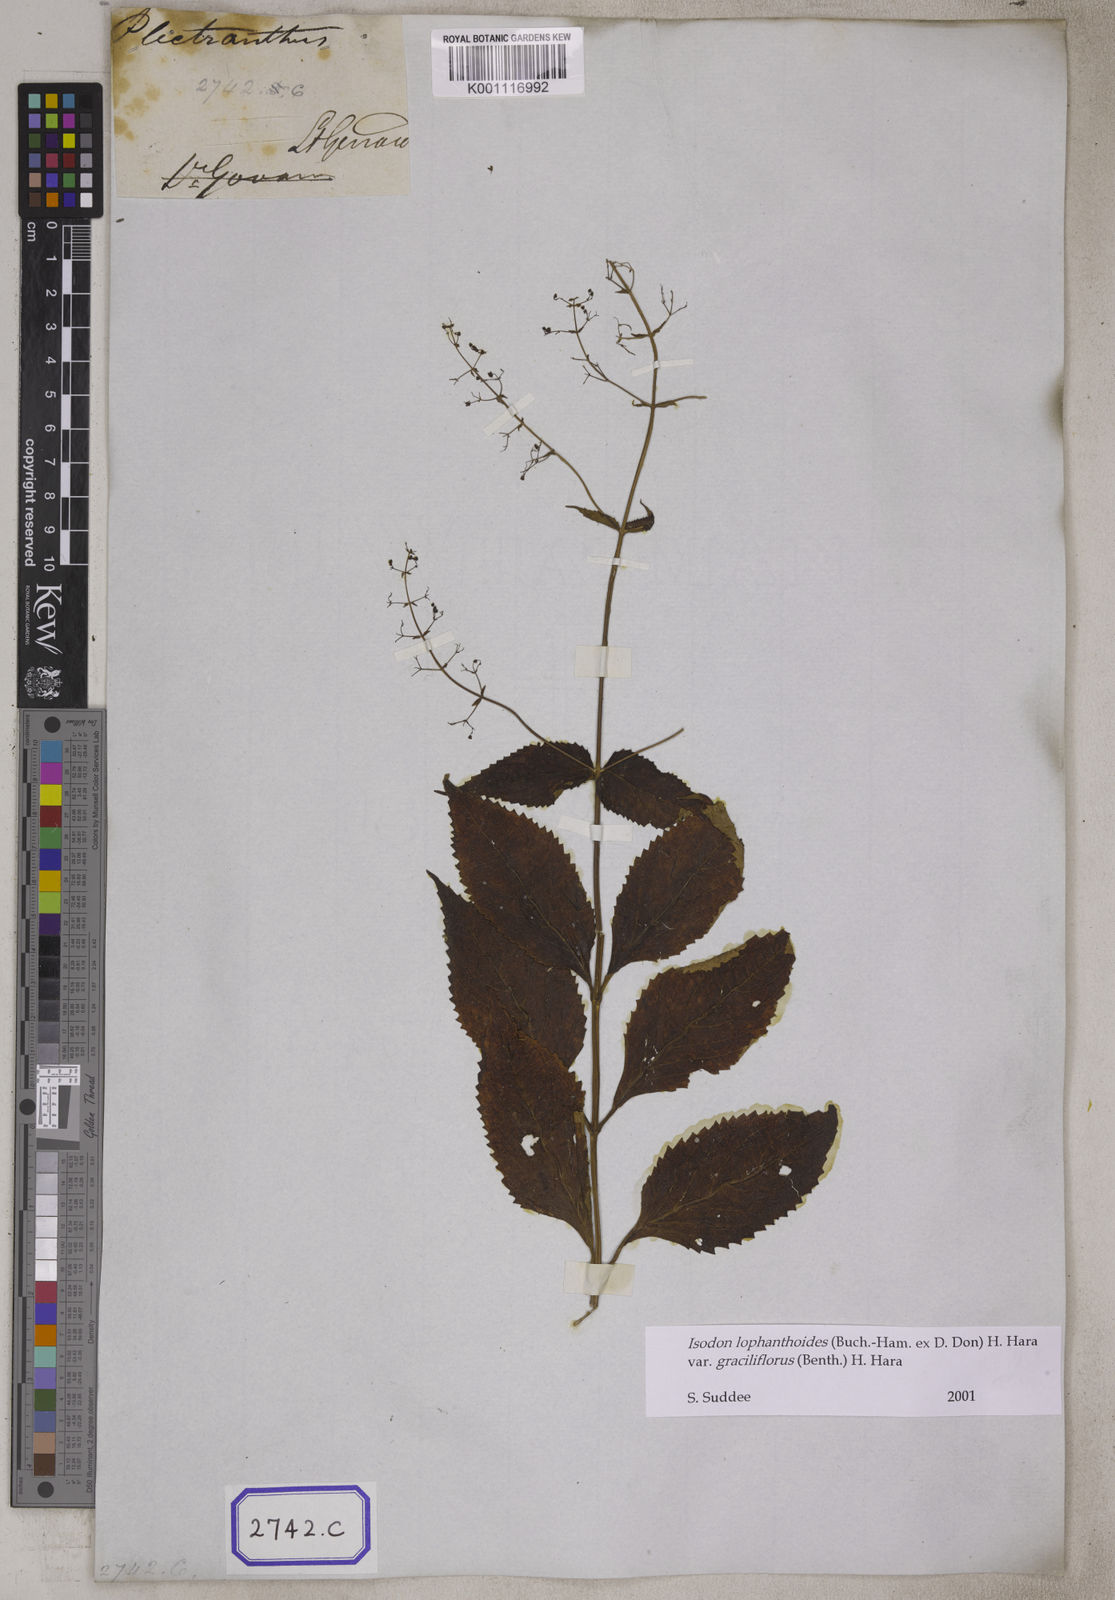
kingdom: Plantae
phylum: Tracheophyta
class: Magnoliopsida
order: Lamiales
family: Lamiaceae
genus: Isodon
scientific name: Isodon lophanthoides
